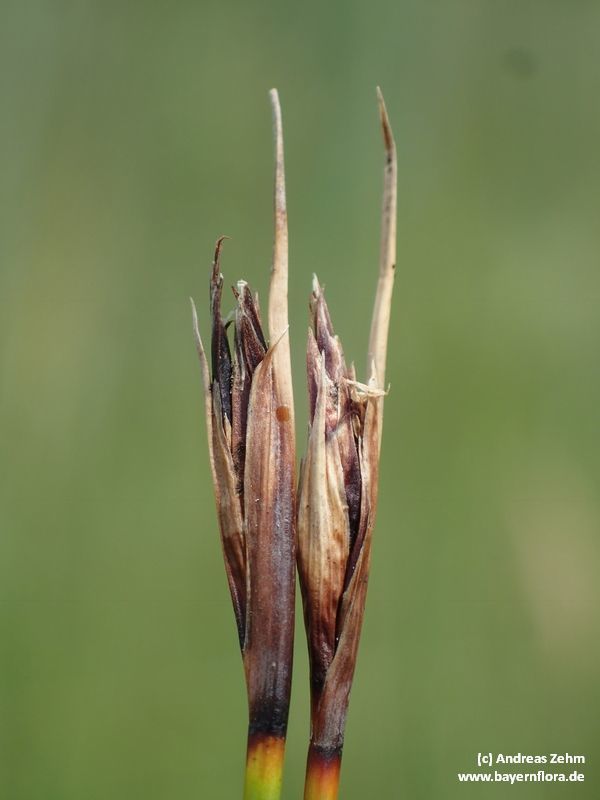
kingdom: Plantae
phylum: Tracheophyta
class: Liliopsida
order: Poales
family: Cyperaceae
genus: Schoenus
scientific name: Schoenus nigricans
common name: Black bog-rush
